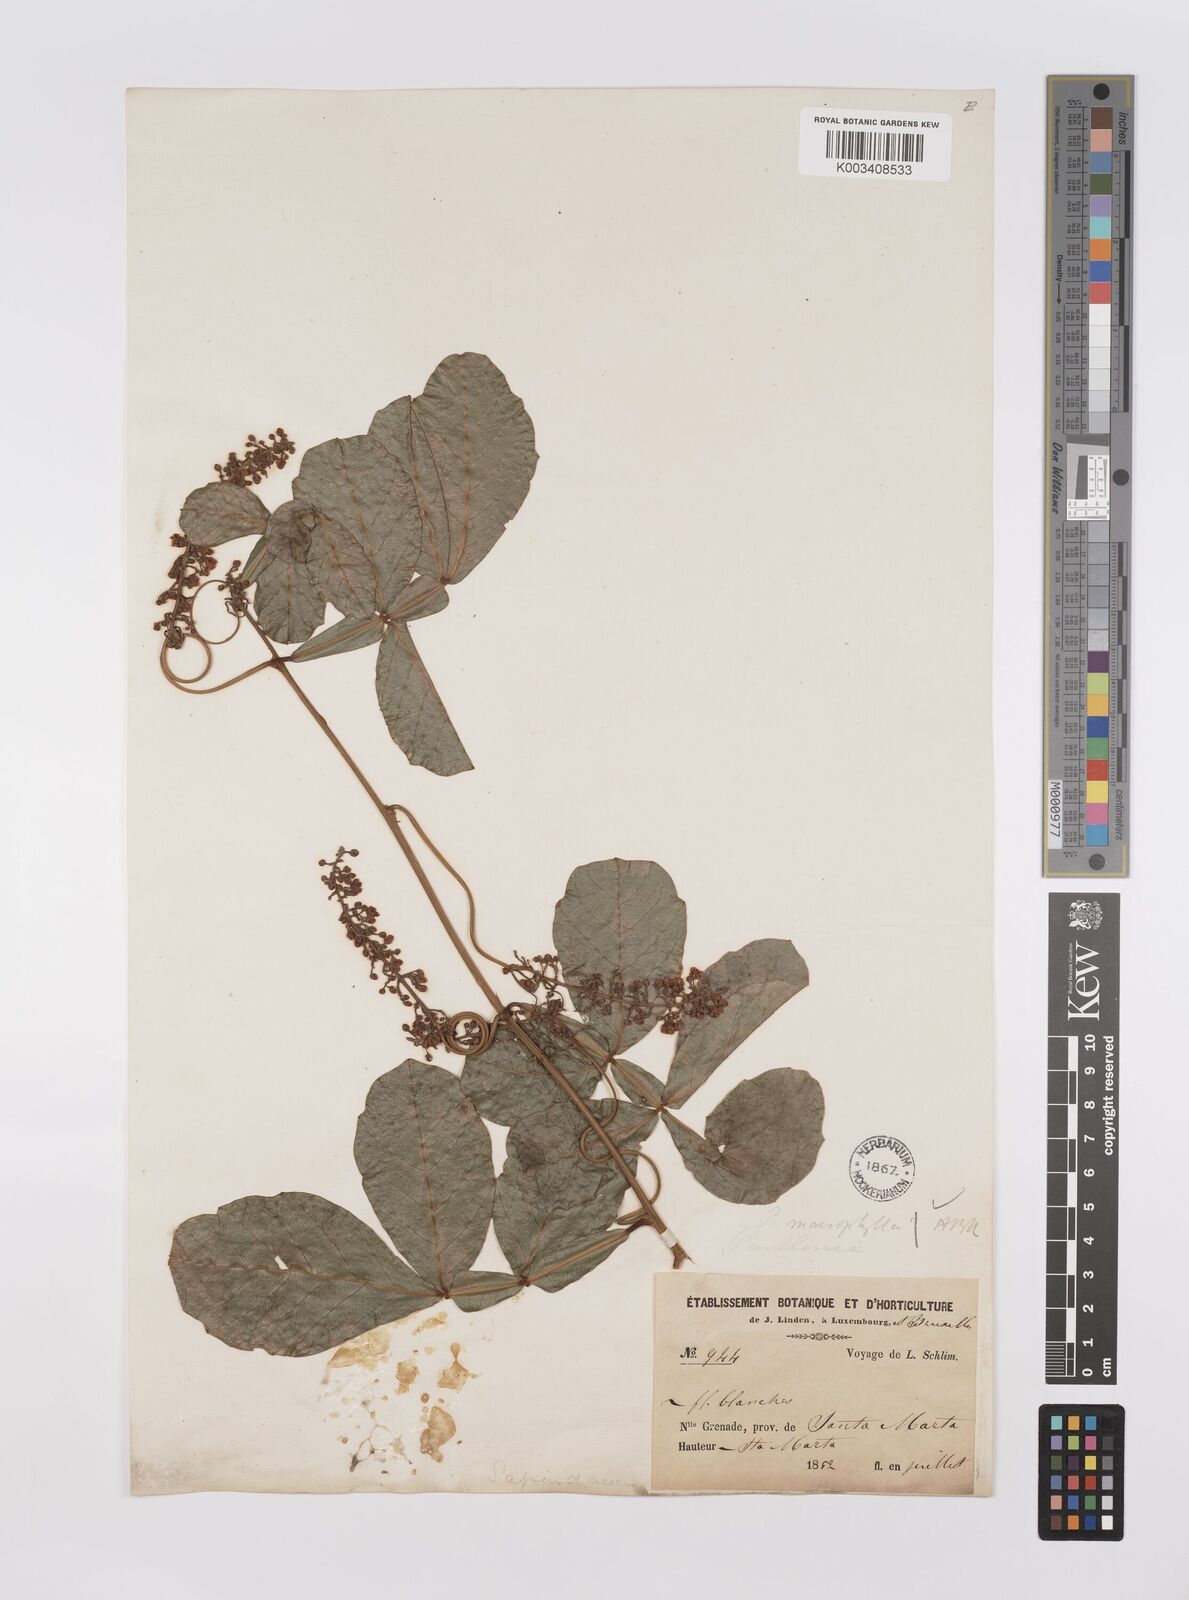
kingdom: Plantae
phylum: Tracheophyta
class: Magnoliopsida
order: Sapindales
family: Sapindaceae
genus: Paullinia
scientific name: Paullinia
